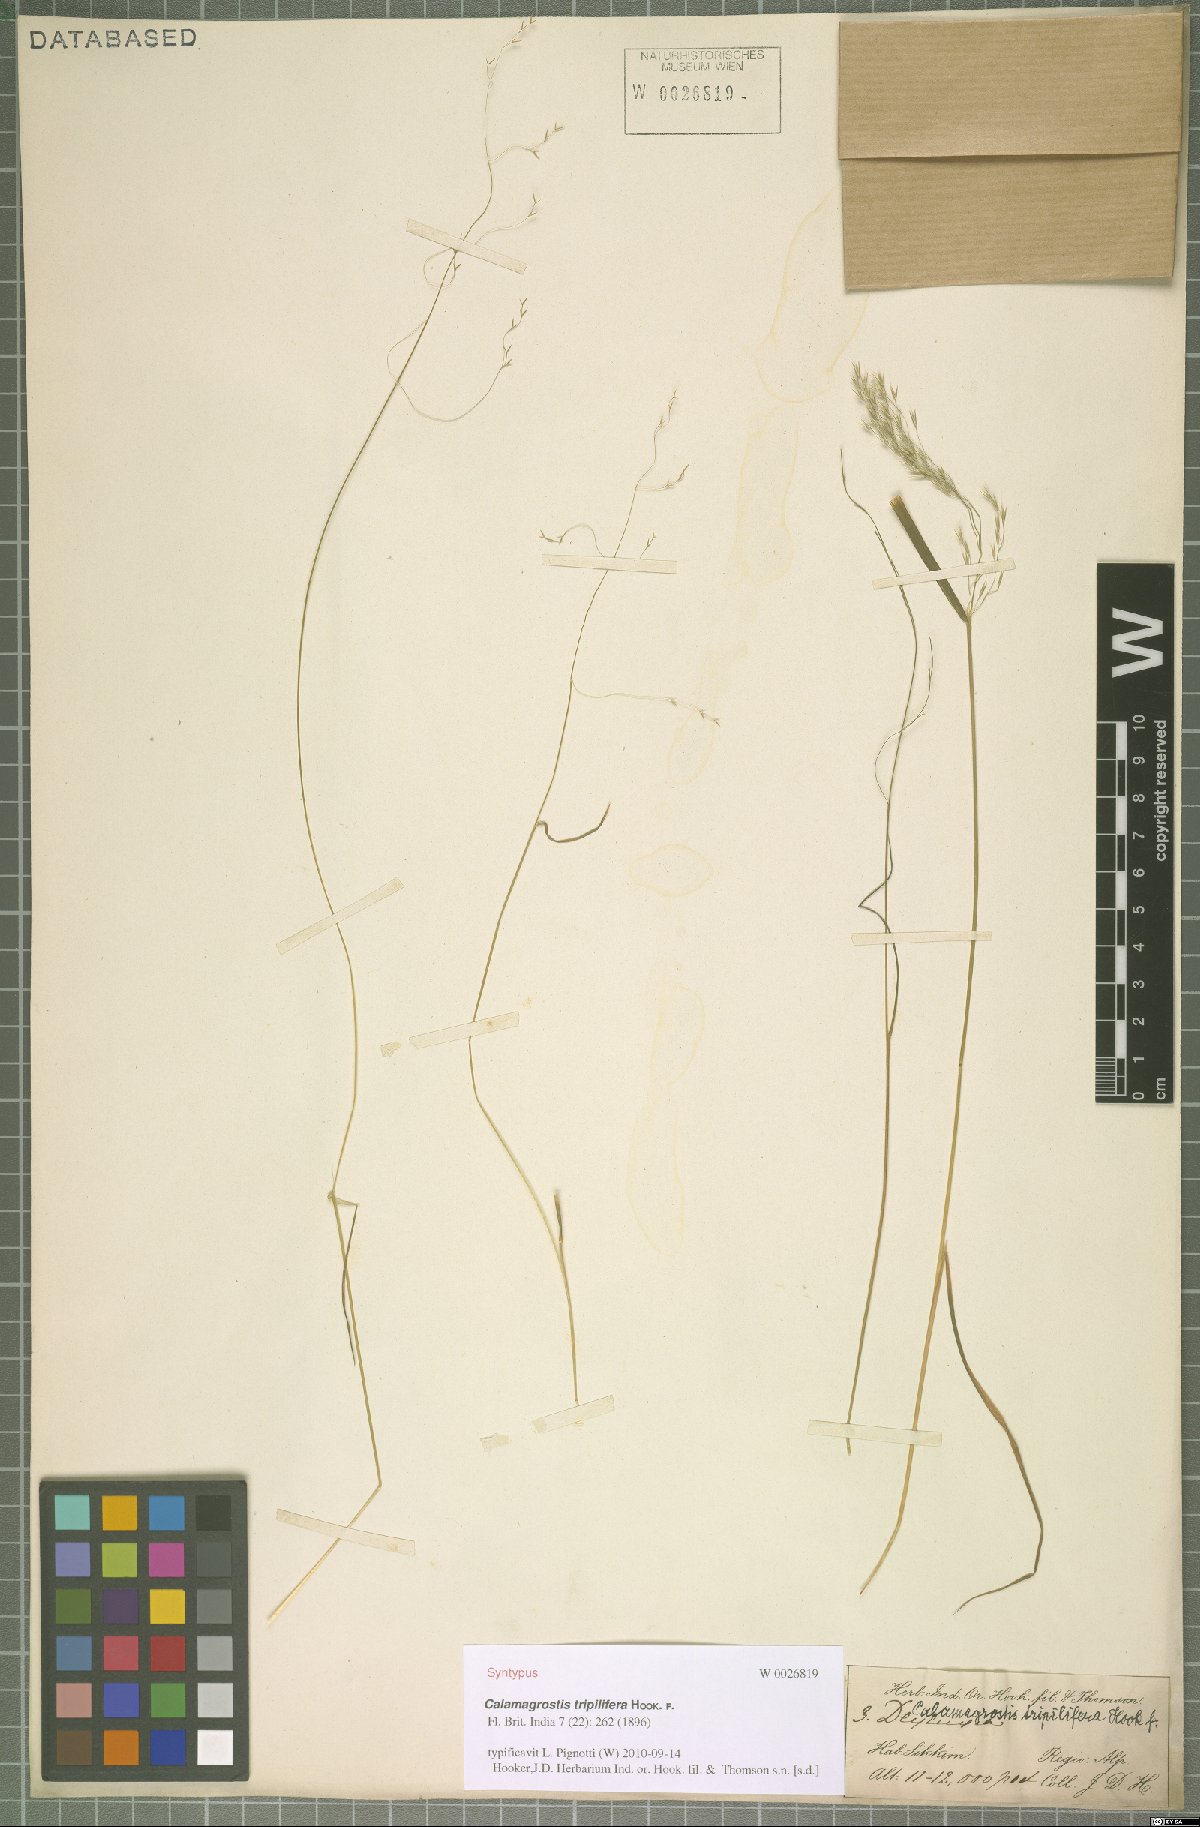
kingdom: Plantae
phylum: Tracheophyta
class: Liliopsida
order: Poales
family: Poaceae
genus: Calamagrostis
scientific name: Calamagrostis filiformis
